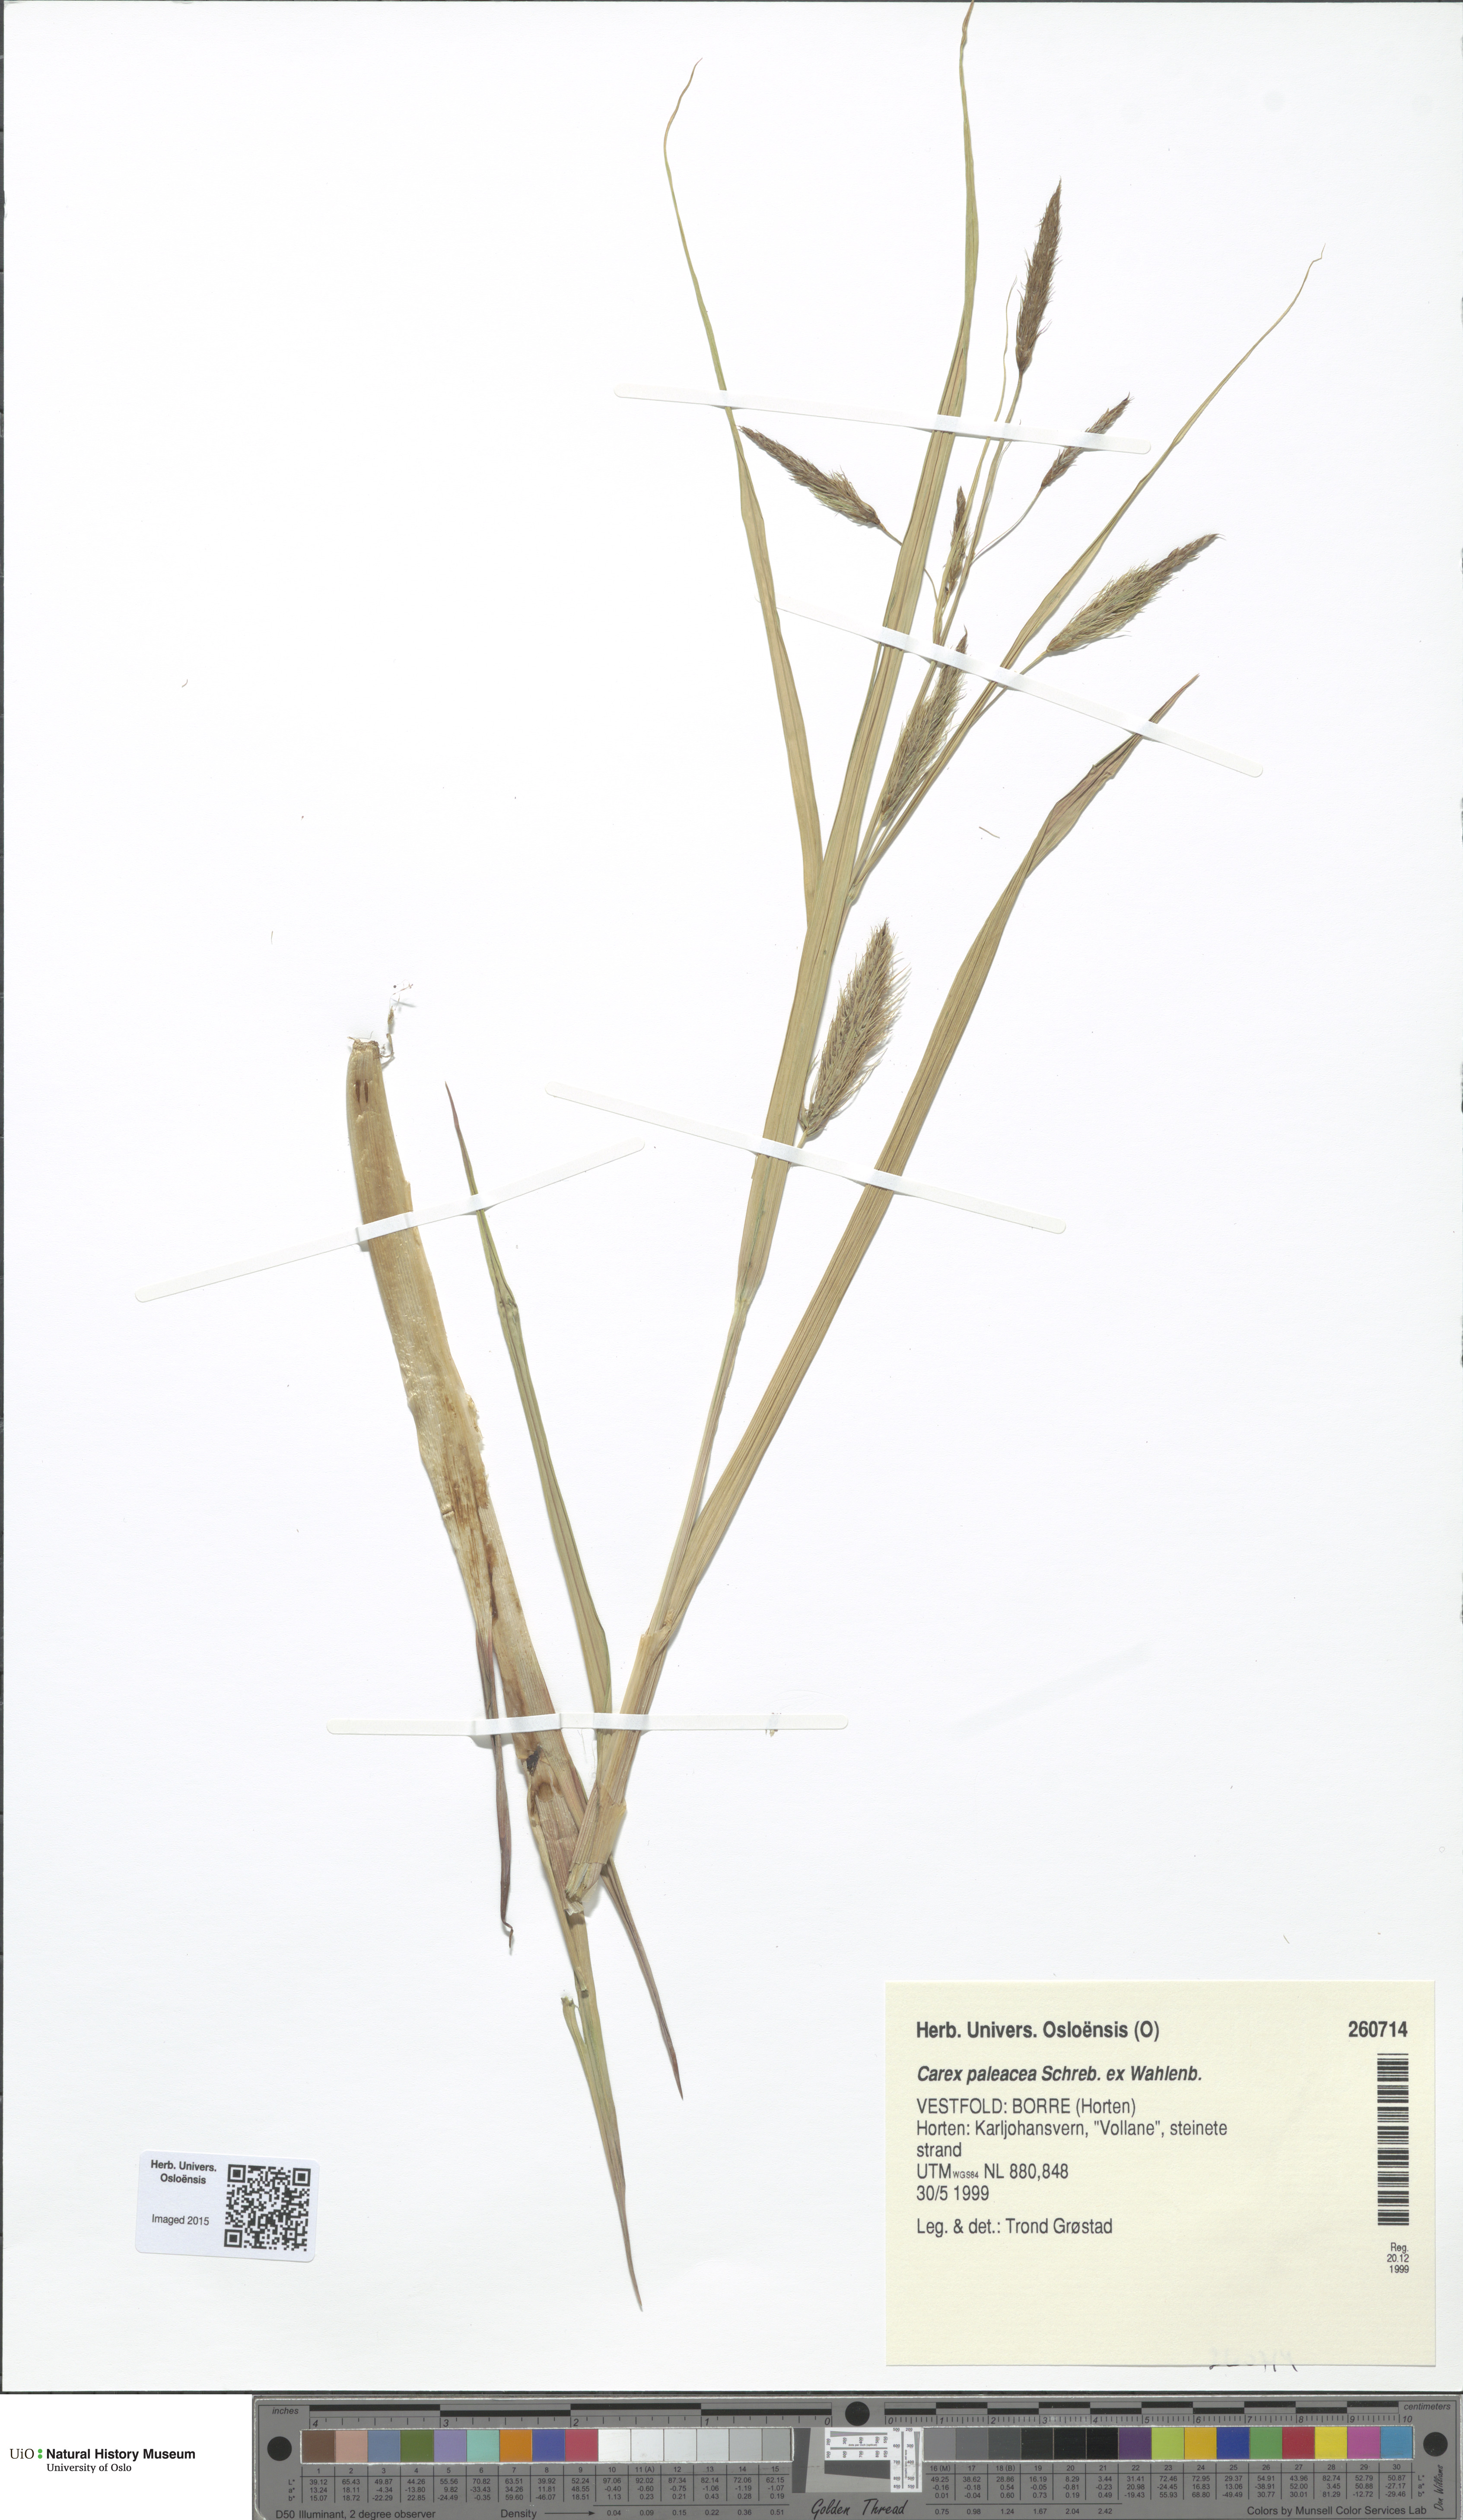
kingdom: Plantae
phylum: Tracheophyta
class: Liliopsida
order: Poales
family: Cyperaceae
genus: Carex
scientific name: Carex paleacea
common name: Chaffy sedge
